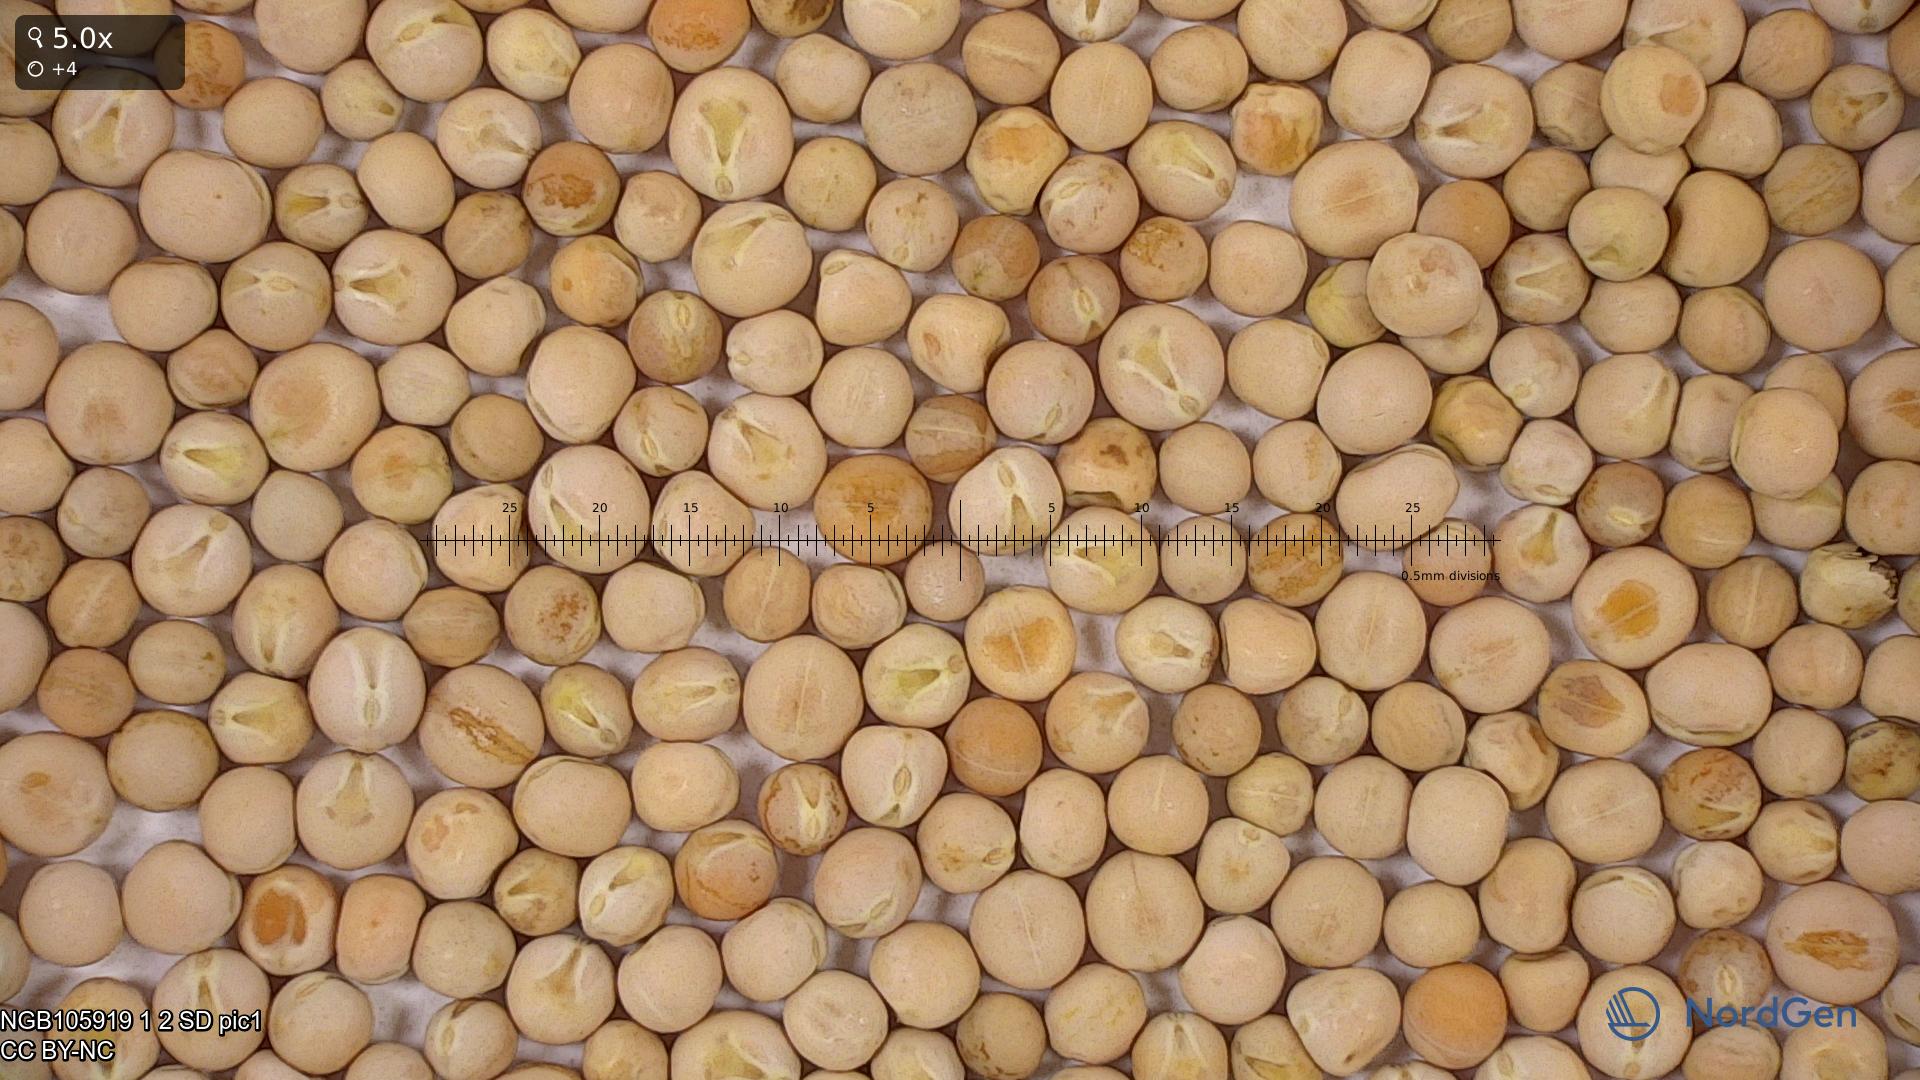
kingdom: Plantae
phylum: Tracheophyta
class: Magnoliopsida
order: Fabales
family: Fabaceae
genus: Lathyrus
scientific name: Lathyrus oleraceus
